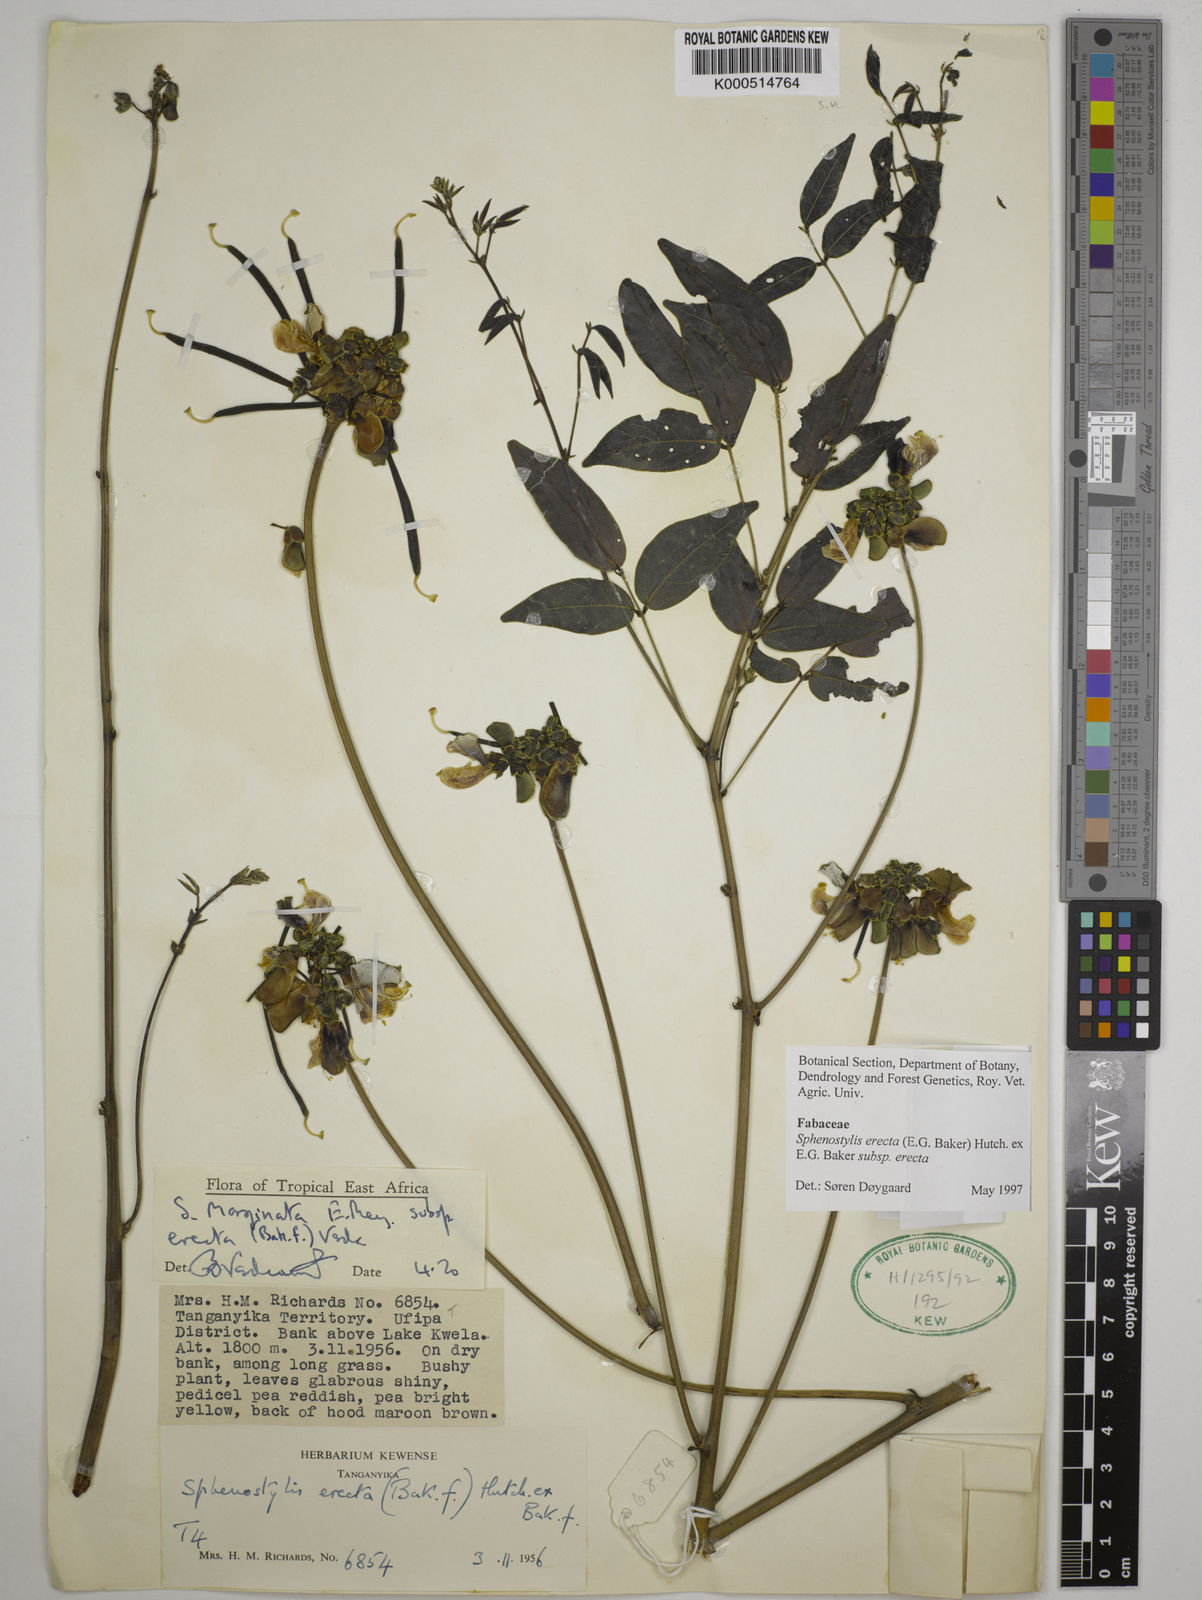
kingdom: Plantae
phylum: Tracheophyta
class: Magnoliopsida
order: Fabales
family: Fabaceae
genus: Sphenostylis
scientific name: Sphenostylis erecta
